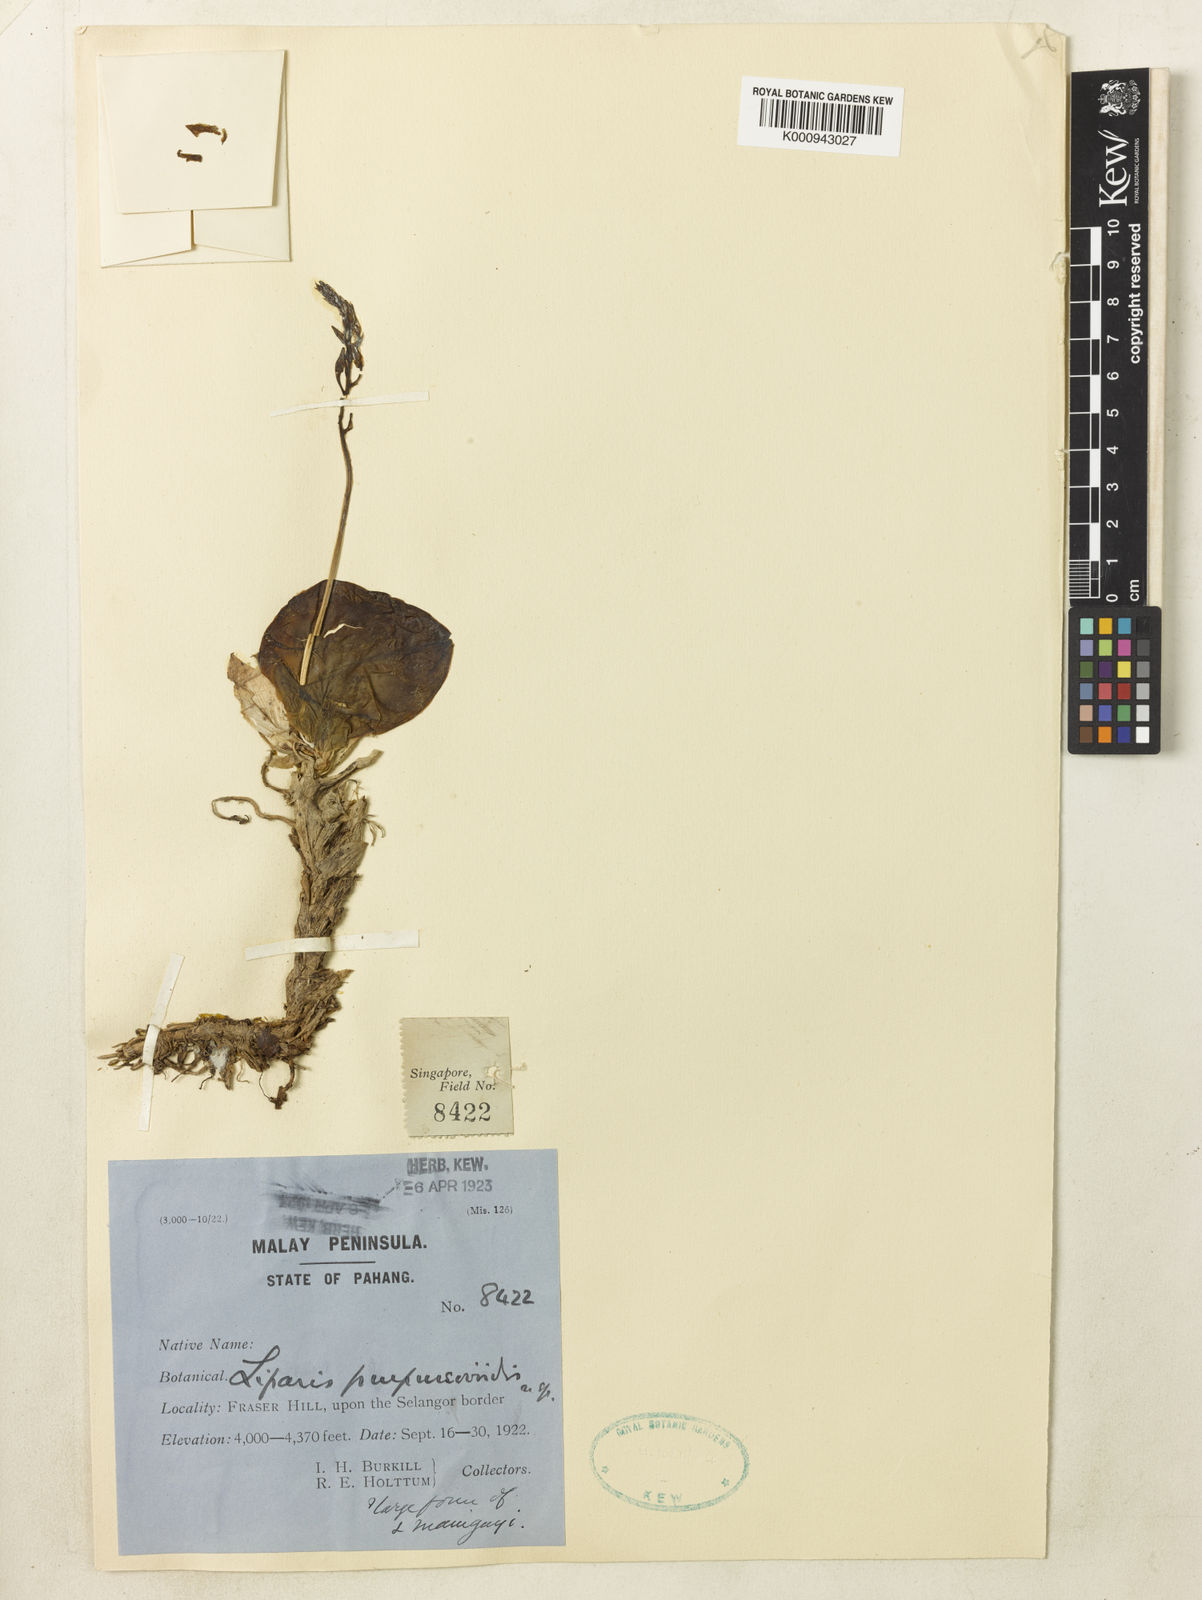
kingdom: Plantae
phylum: Tracheophyta
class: Liliopsida
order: Asparagales
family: Orchidaceae
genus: Oberonioides
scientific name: Oberonioides purpureoviridis
